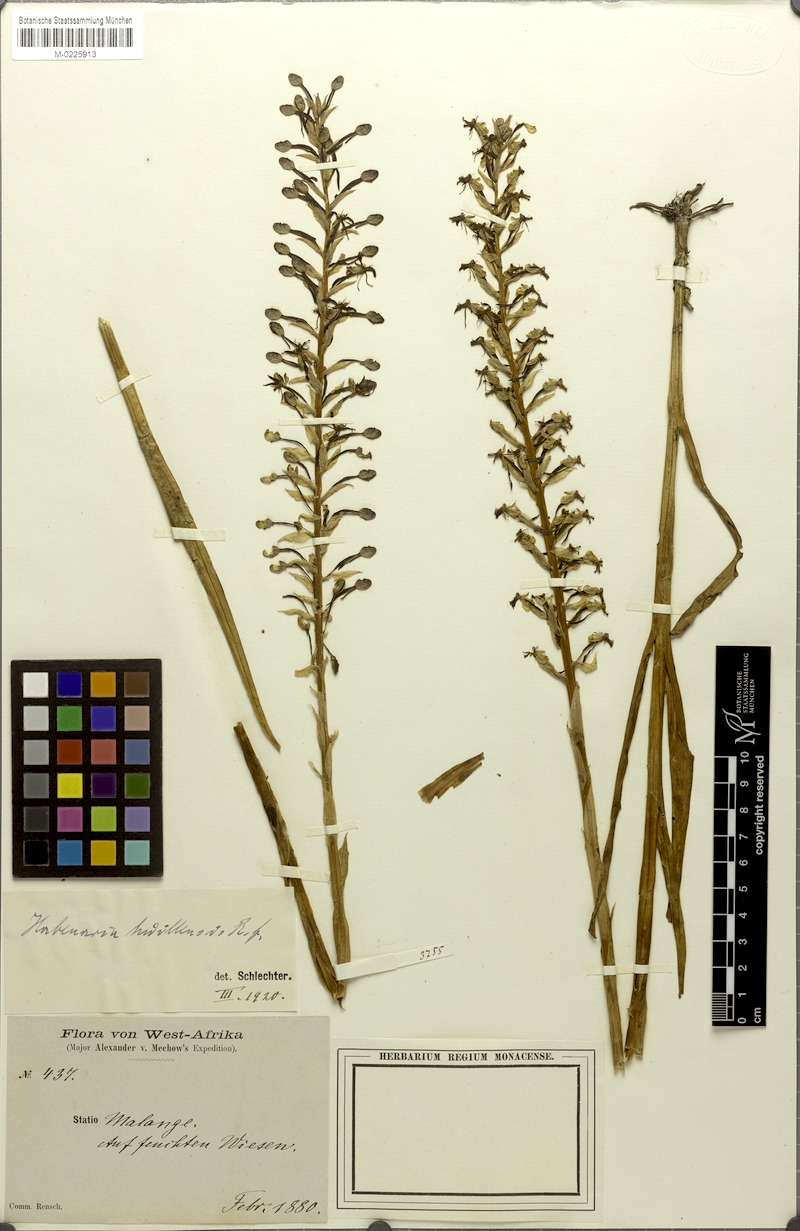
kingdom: Plantae
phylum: Tracheophyta
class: Liliopsida
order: Asparagales
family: Orchidaceae
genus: Habenaria
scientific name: Habenaria huillensis
